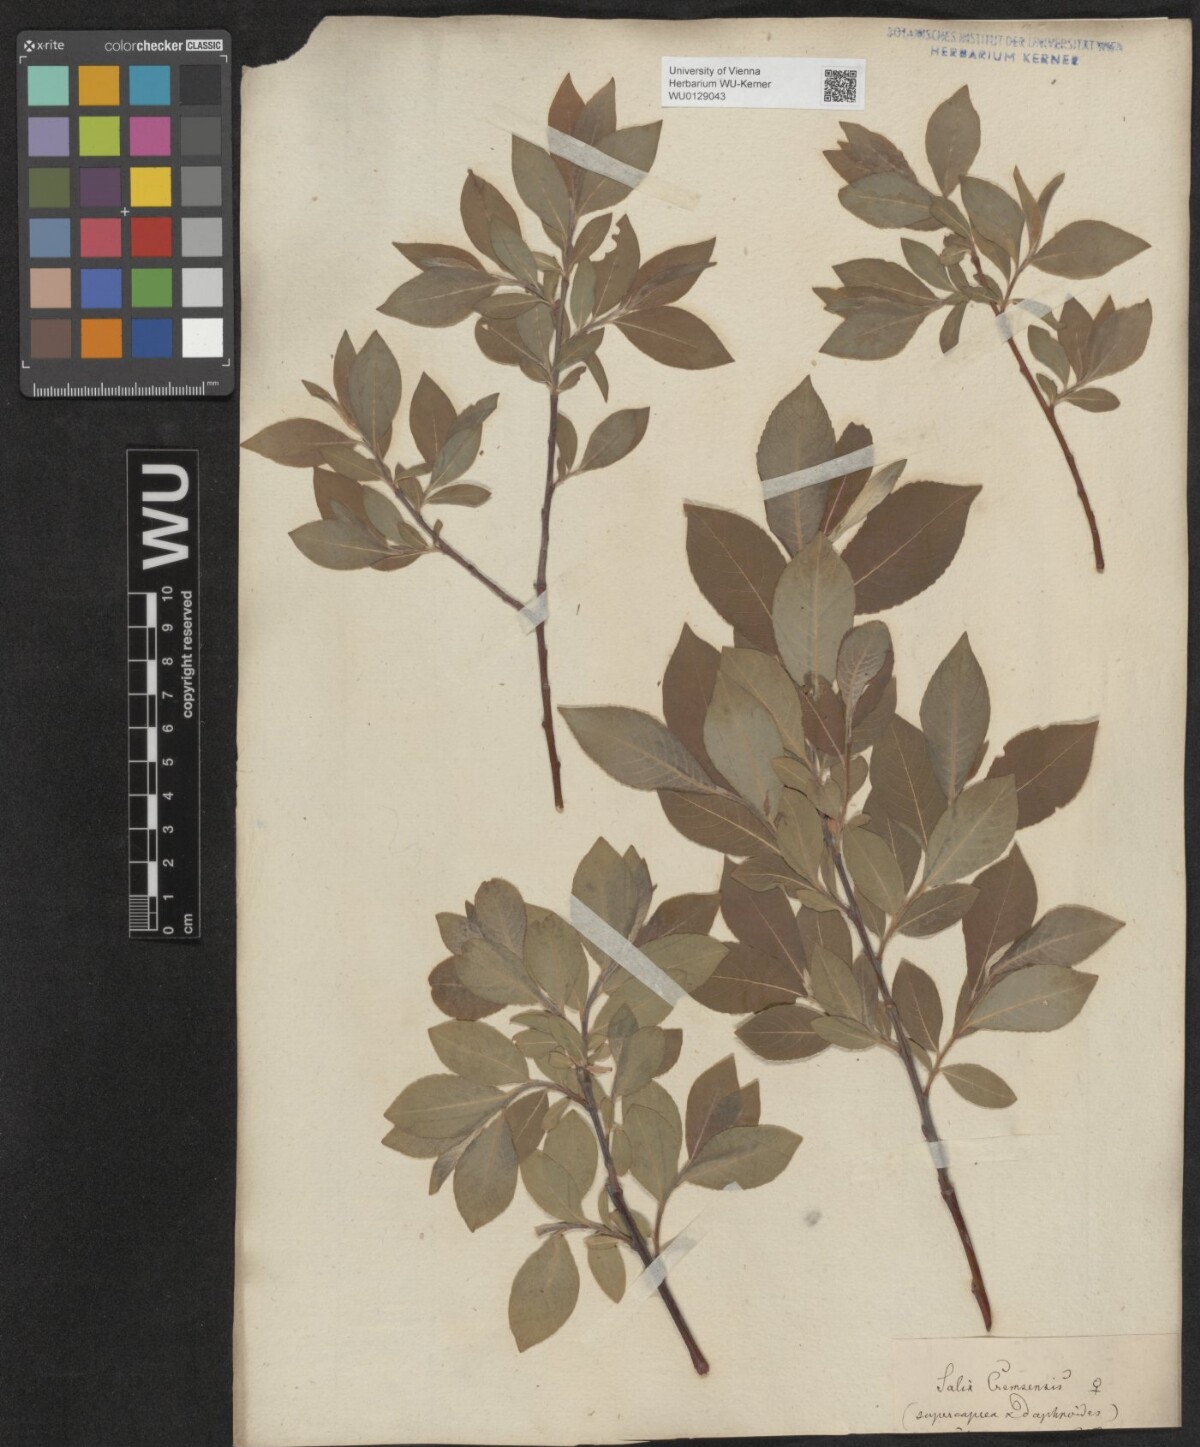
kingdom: Plantae
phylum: Tracheophyta
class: Magnoliopsida
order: Malpighiales
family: Salicaceae
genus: Salix
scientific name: Salix erdingeri
